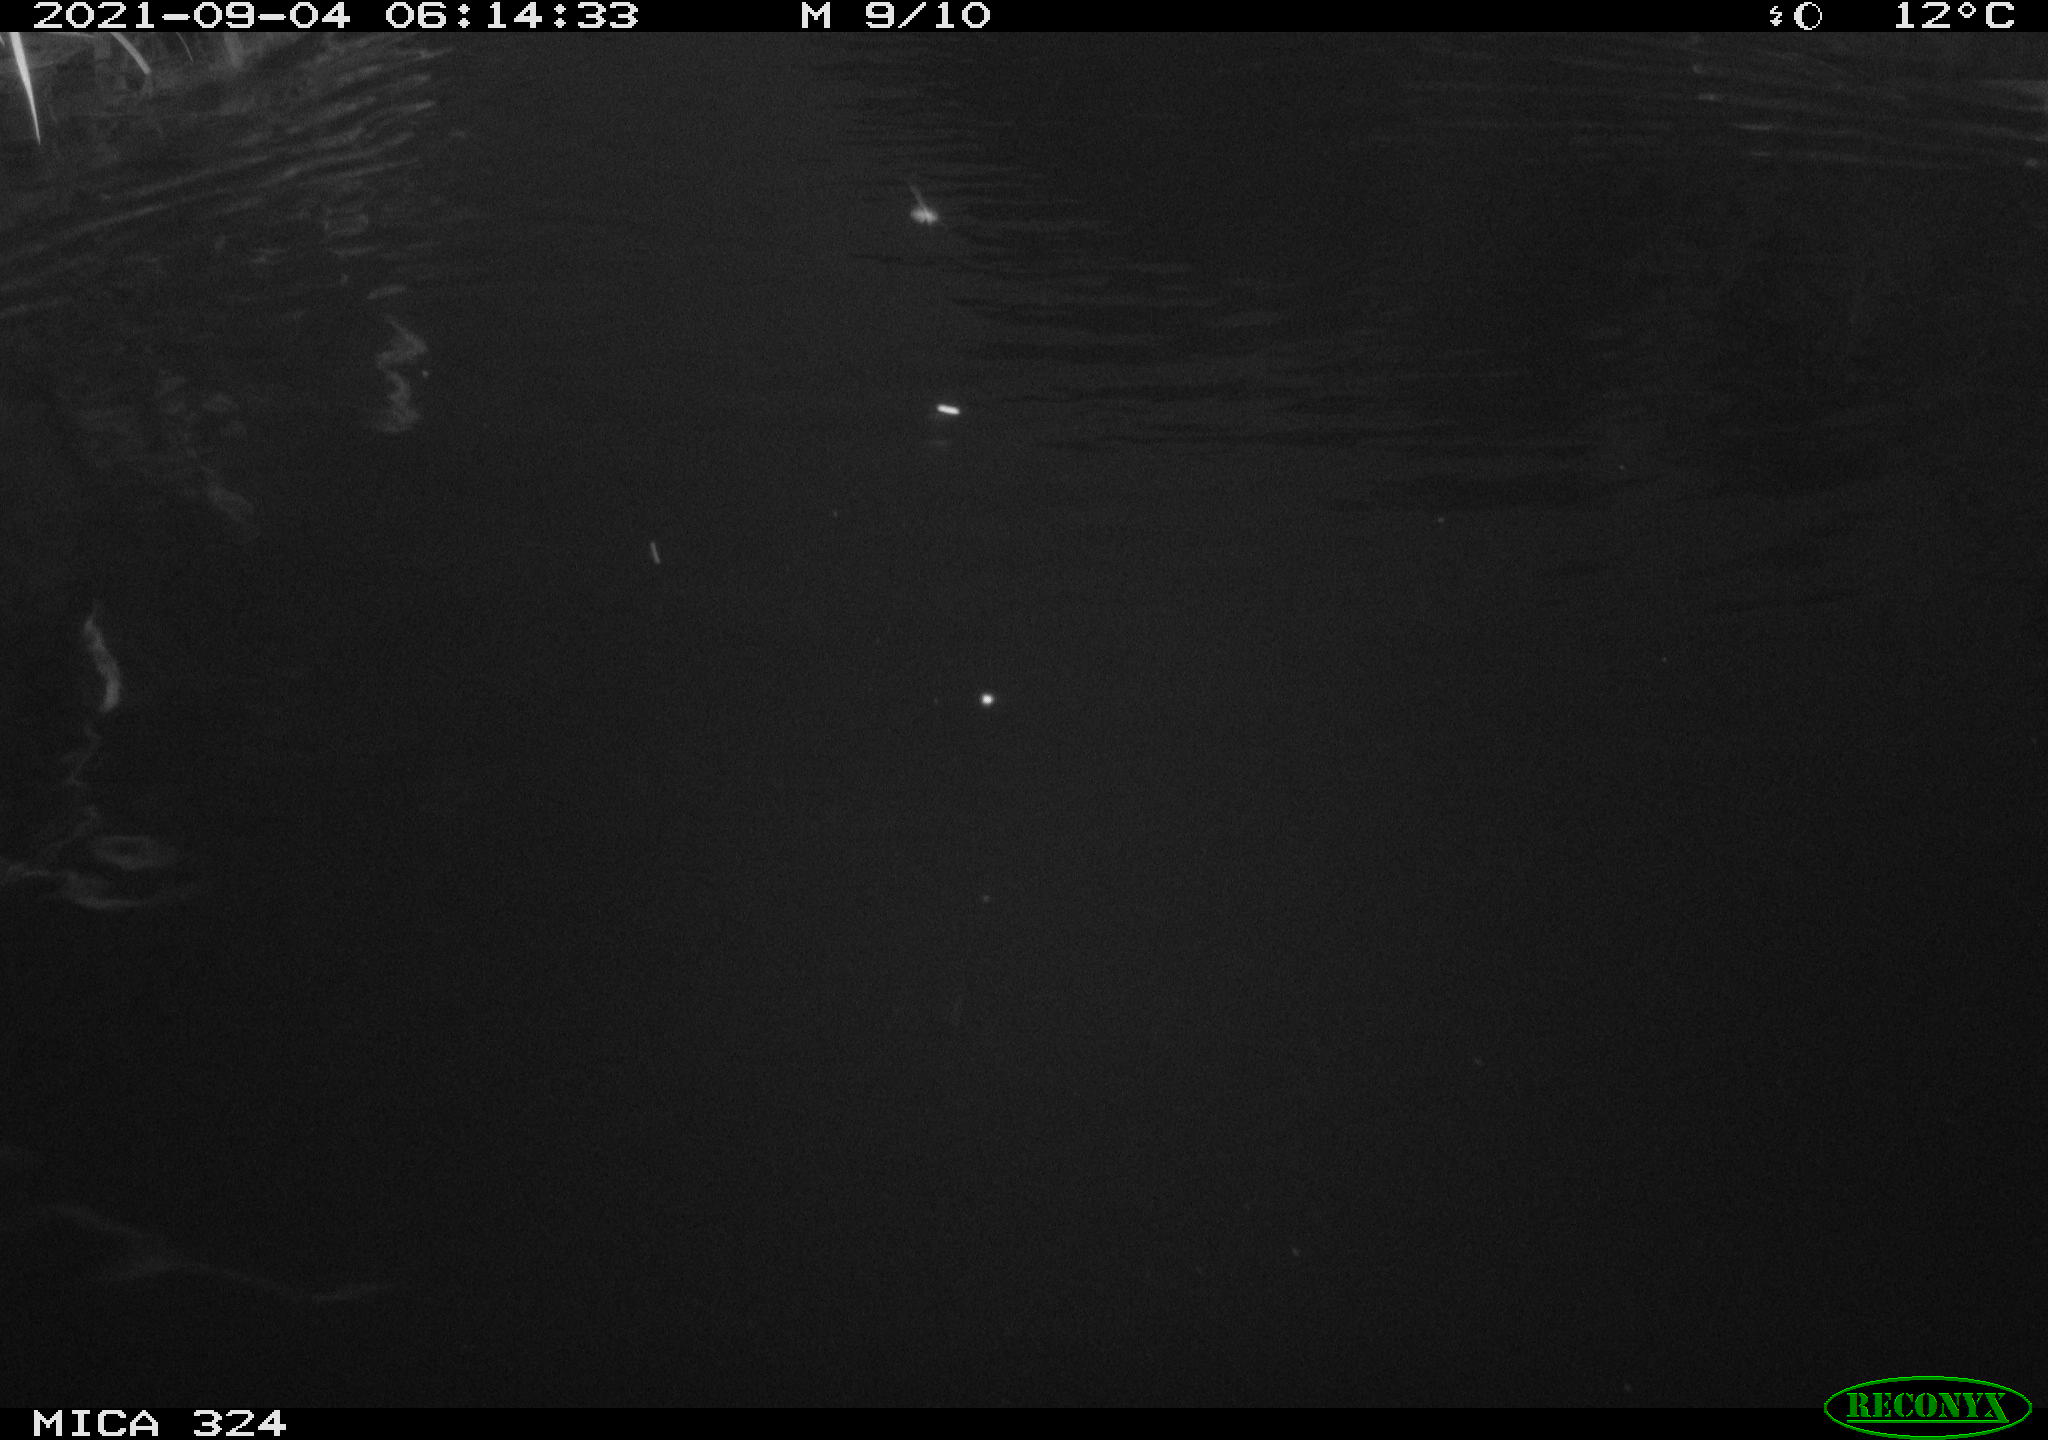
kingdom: Animalia
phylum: Chordata
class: Mammalia
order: Rodentia
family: Cricetidae
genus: Ondatra
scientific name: Ondatra zibethicus
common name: Muskrat
